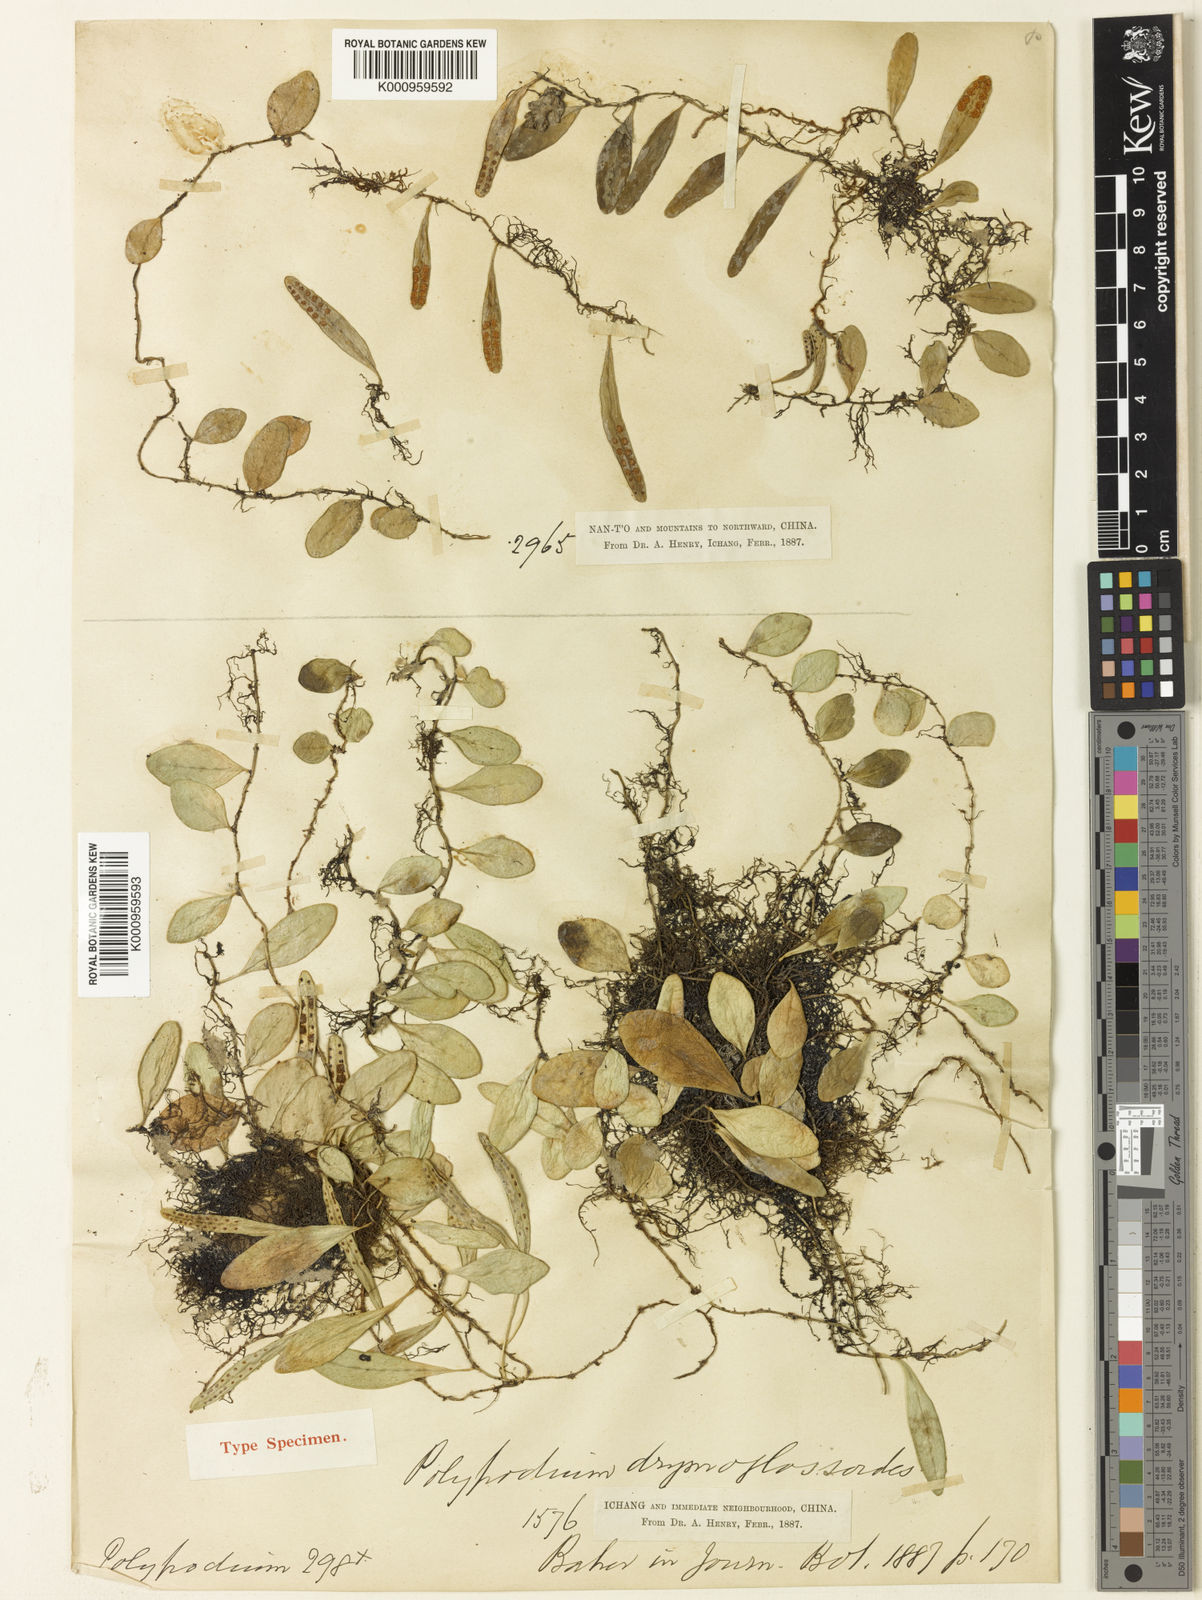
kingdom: Plantae
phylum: Tracheophyta
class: Polypodiopsida
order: Polypodiales
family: Polypodiaceae
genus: Lepisorus
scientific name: Lepisorus
